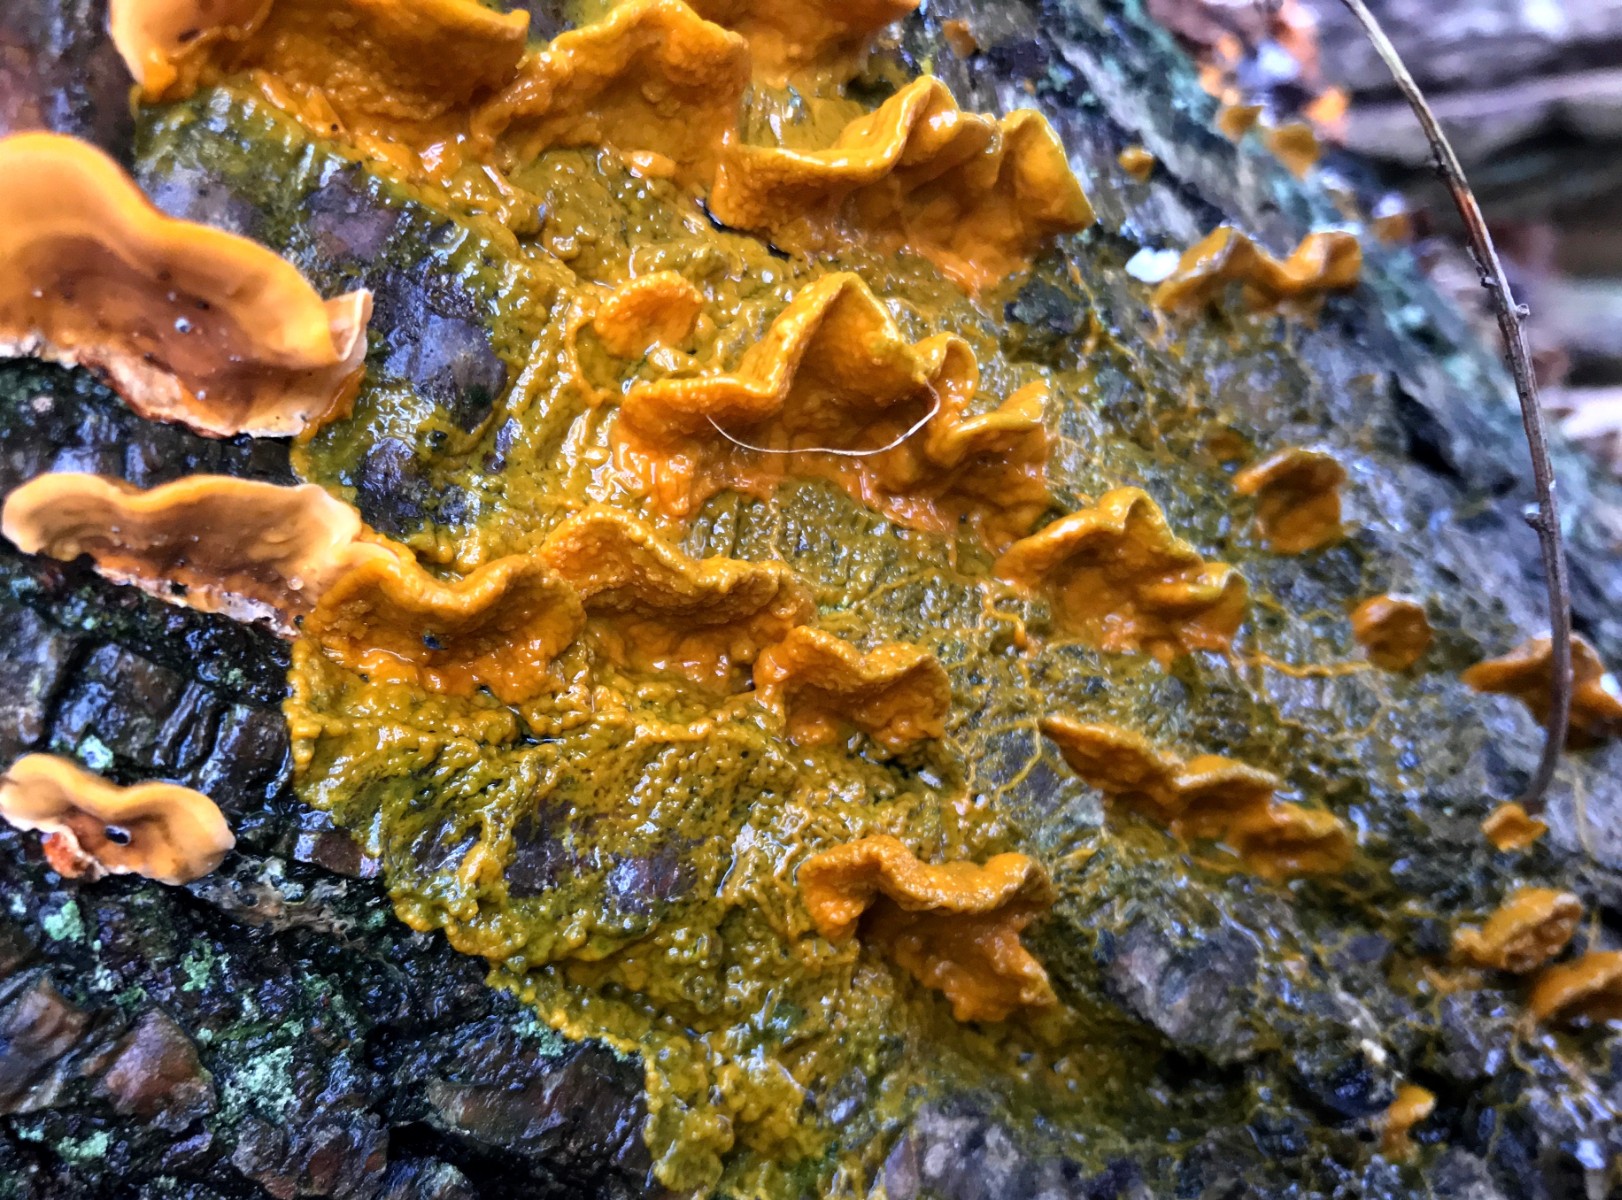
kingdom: Protozoa
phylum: Mycetozoa
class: Myxomycetes
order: Physarales
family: Physaraceae
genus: Badhamia
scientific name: Badhamia utricularis
